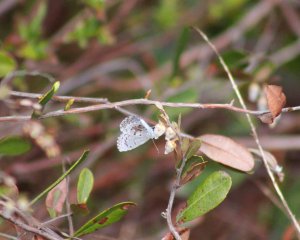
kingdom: Animalia
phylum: Arthropoda
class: Insecta
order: Lepidoptera
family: Lycaenidae
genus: Celastrina
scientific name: Celastrina lucia
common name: Northern Spring Azure
